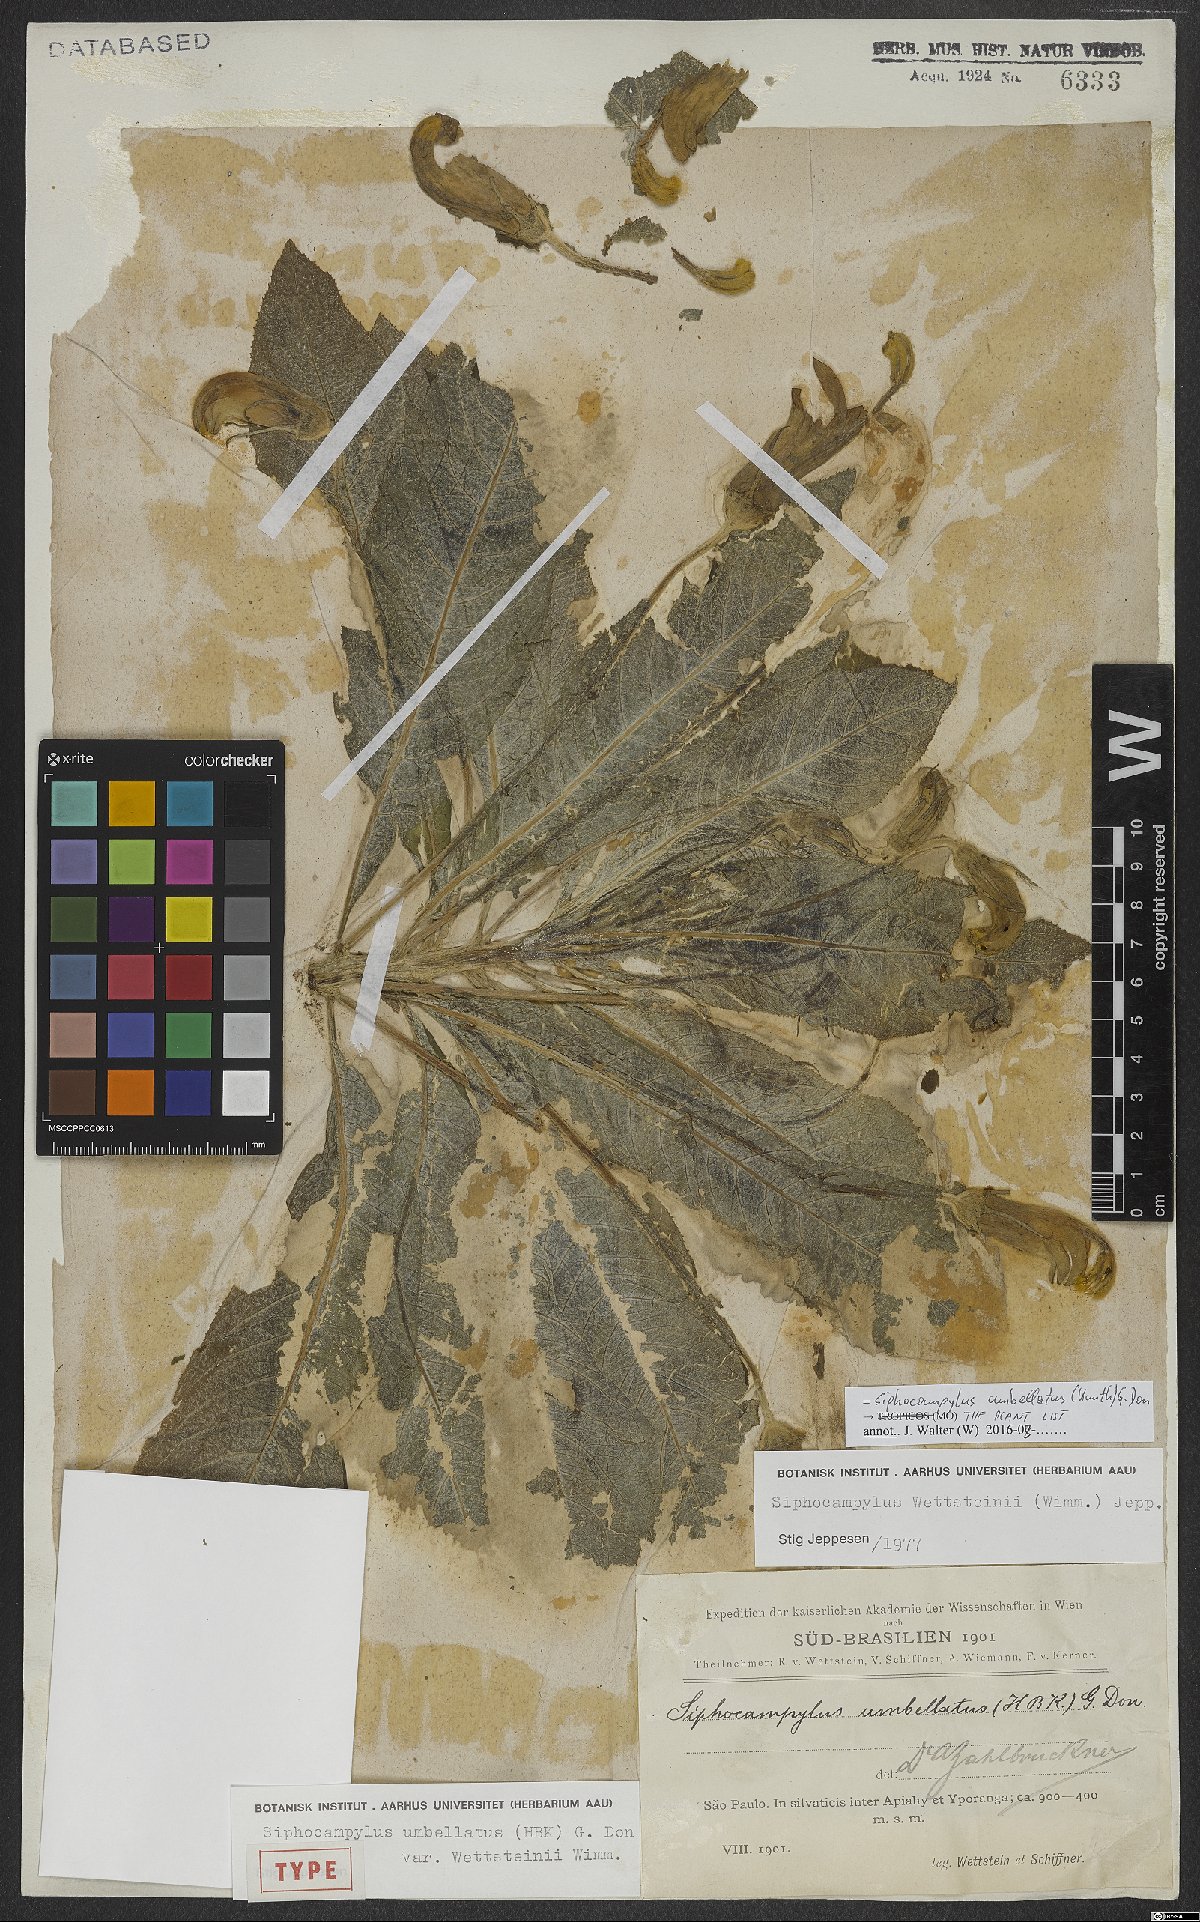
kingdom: Plantae
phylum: Tracheophyta
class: Magnoliopsida
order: Asterales
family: Campanulaceae
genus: Siphocampylus
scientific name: Siphocampylus umbellatus
